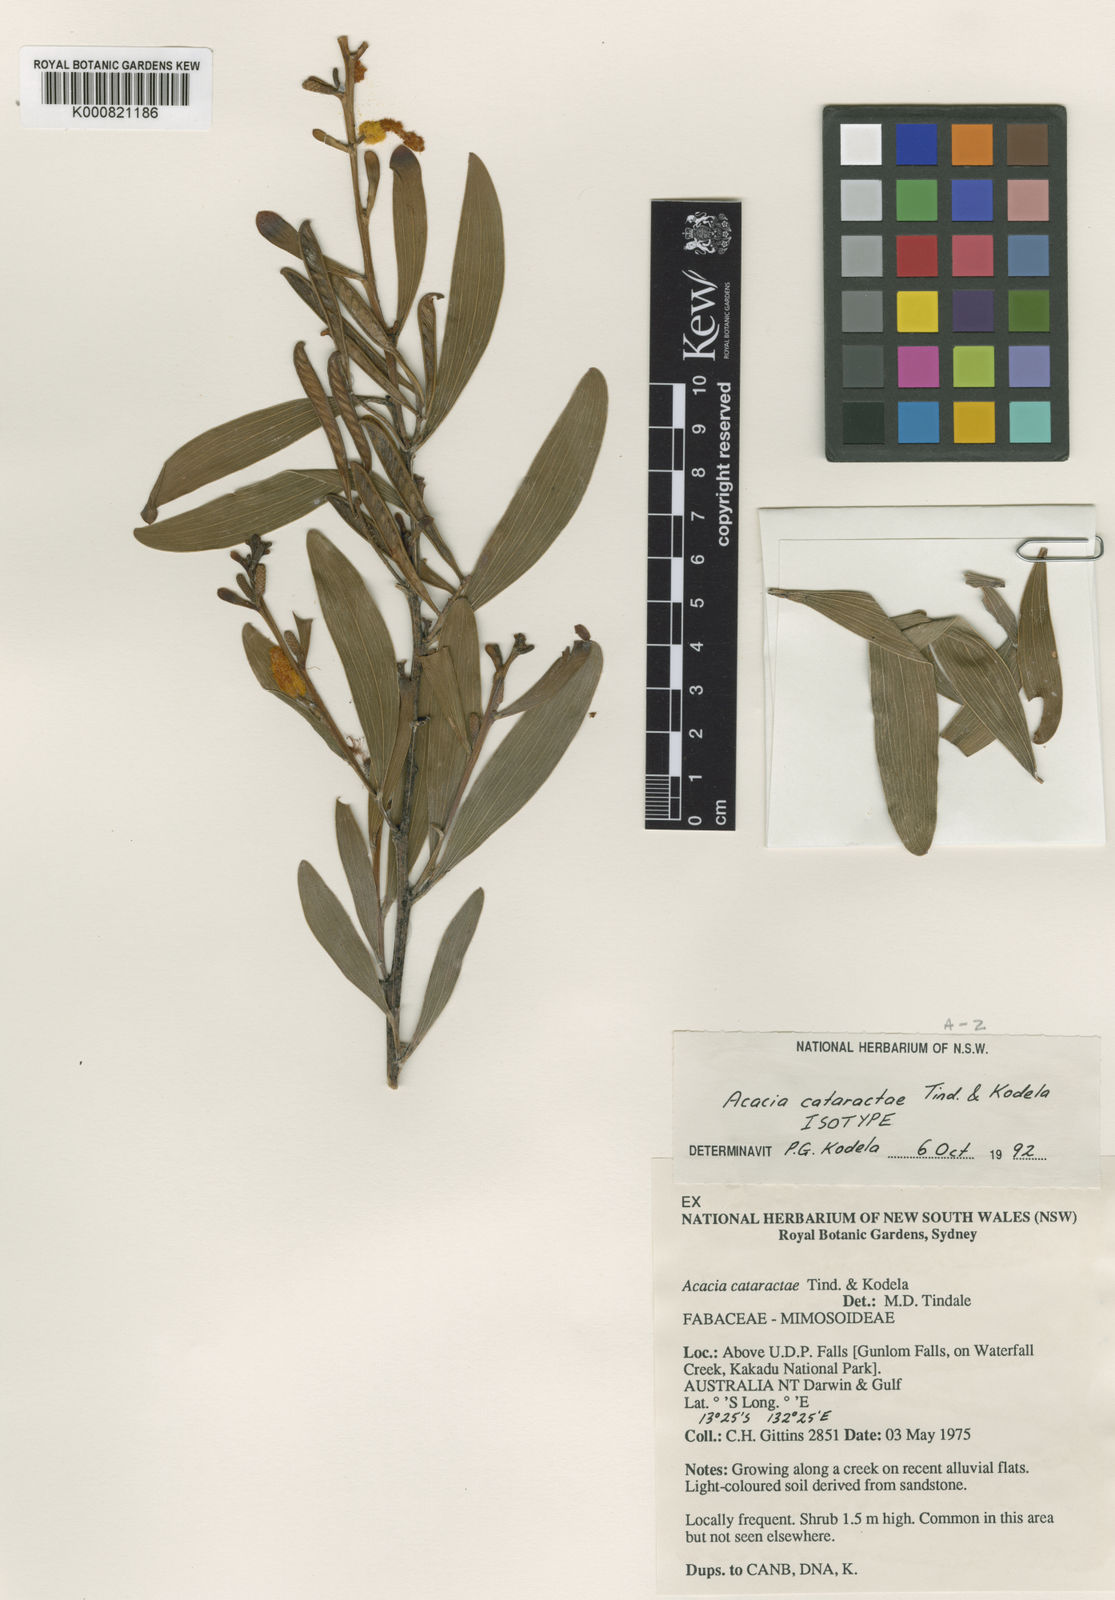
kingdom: Plantae
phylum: Tracheophyta
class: Magnoliopsida
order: Fabales
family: Fabaceae
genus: Acacia
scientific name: Acacia cataractae
